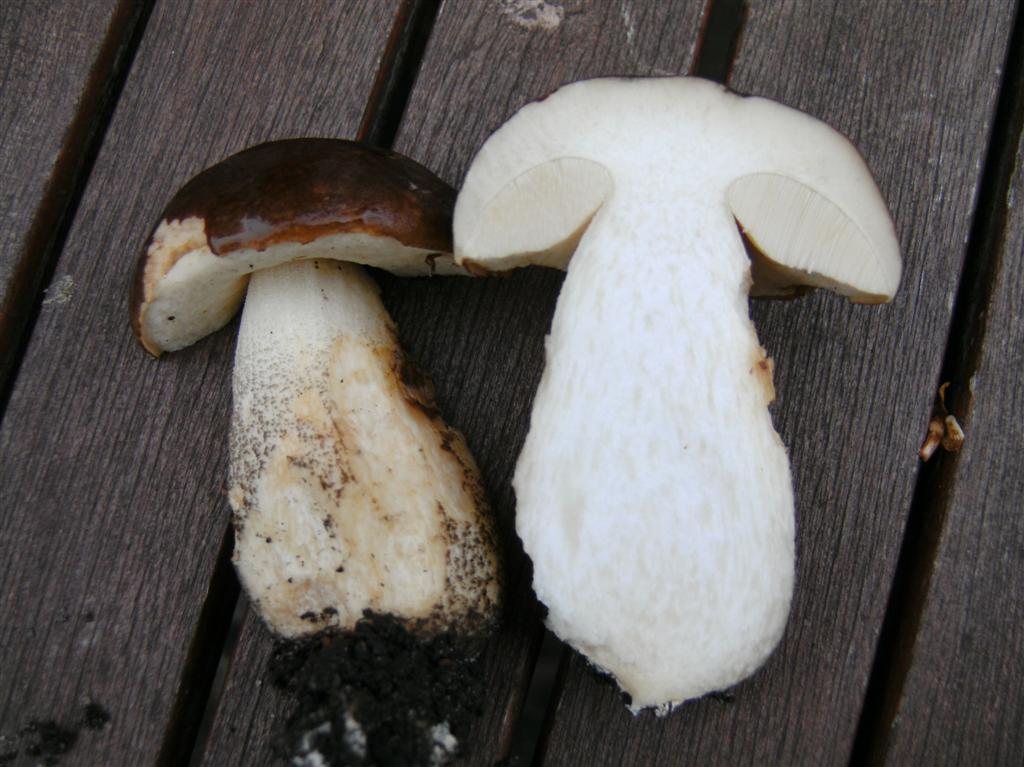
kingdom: Fungi
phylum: Basidiomycota
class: Agaricomycetes
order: Boletales
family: Boletaceae
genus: Leccinum
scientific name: Leccinum scabrum
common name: brun skælrørhat
